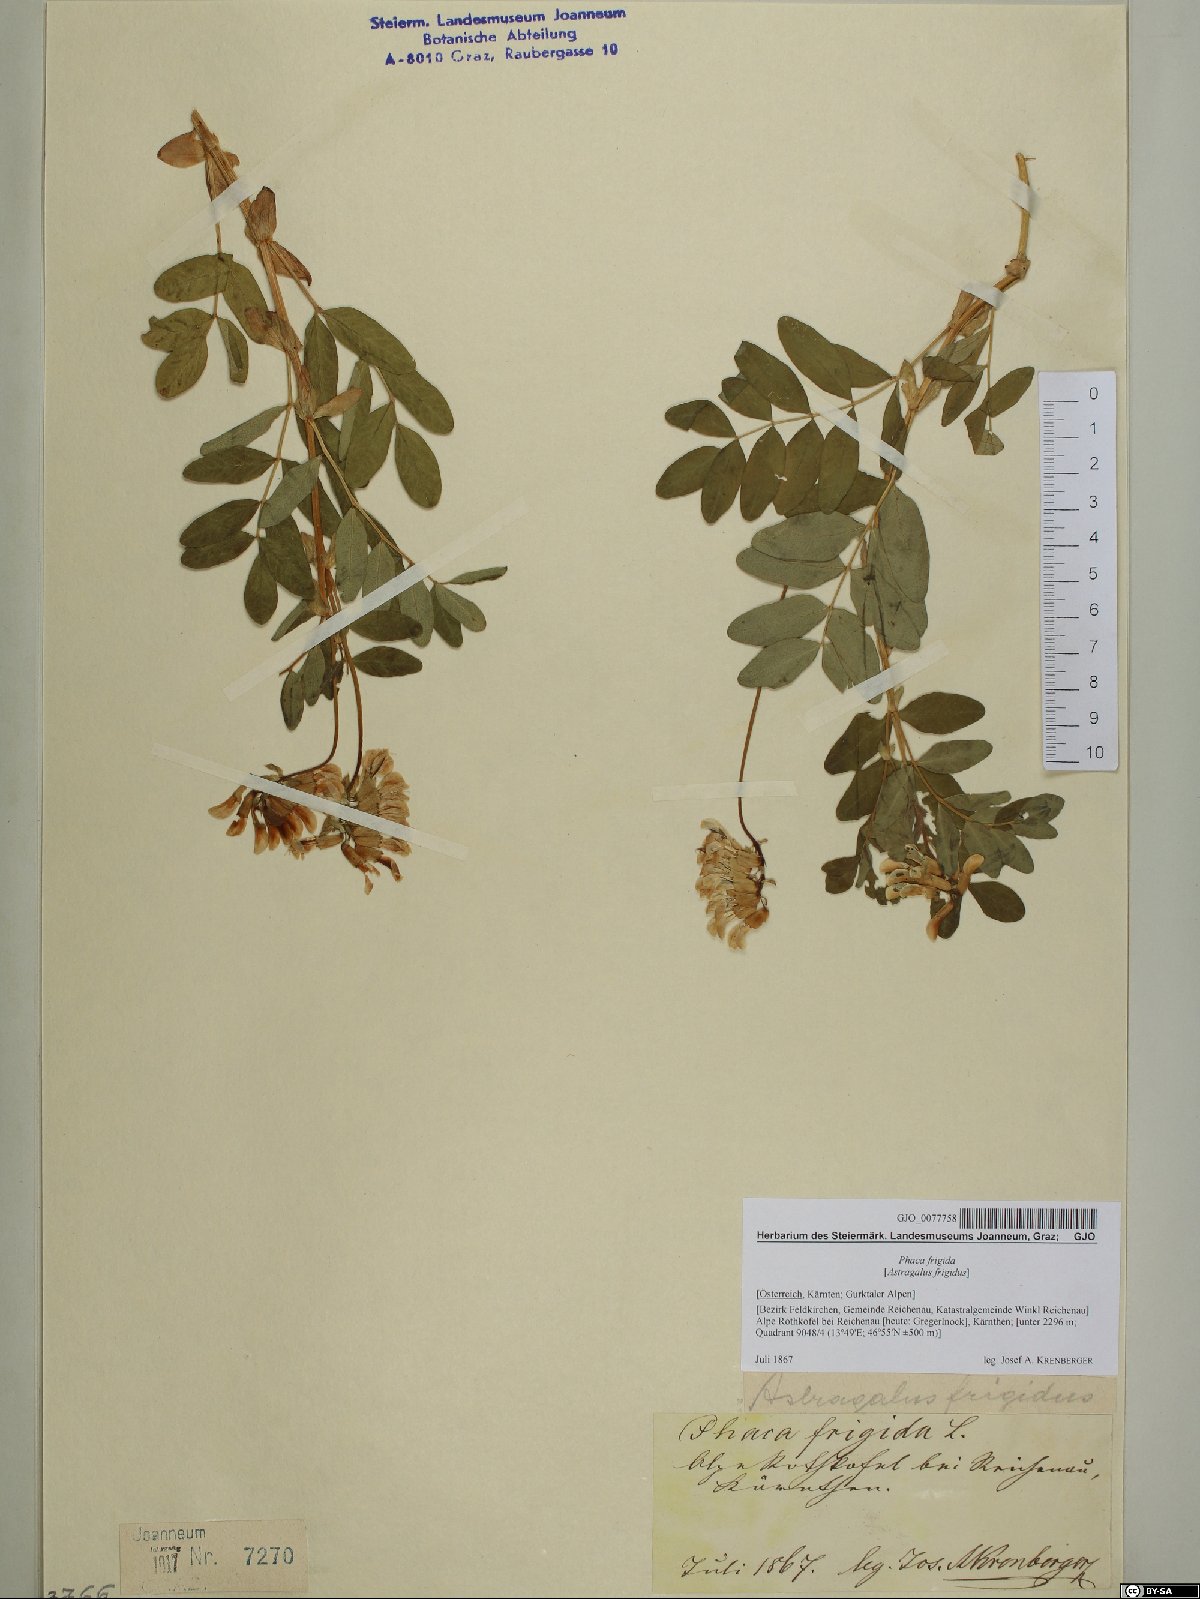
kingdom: Plantae
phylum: Tracheophyta
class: Magnoliopsida
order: Fabales
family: Fabaceae
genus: Astragalus
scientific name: Astragalus frigidus
